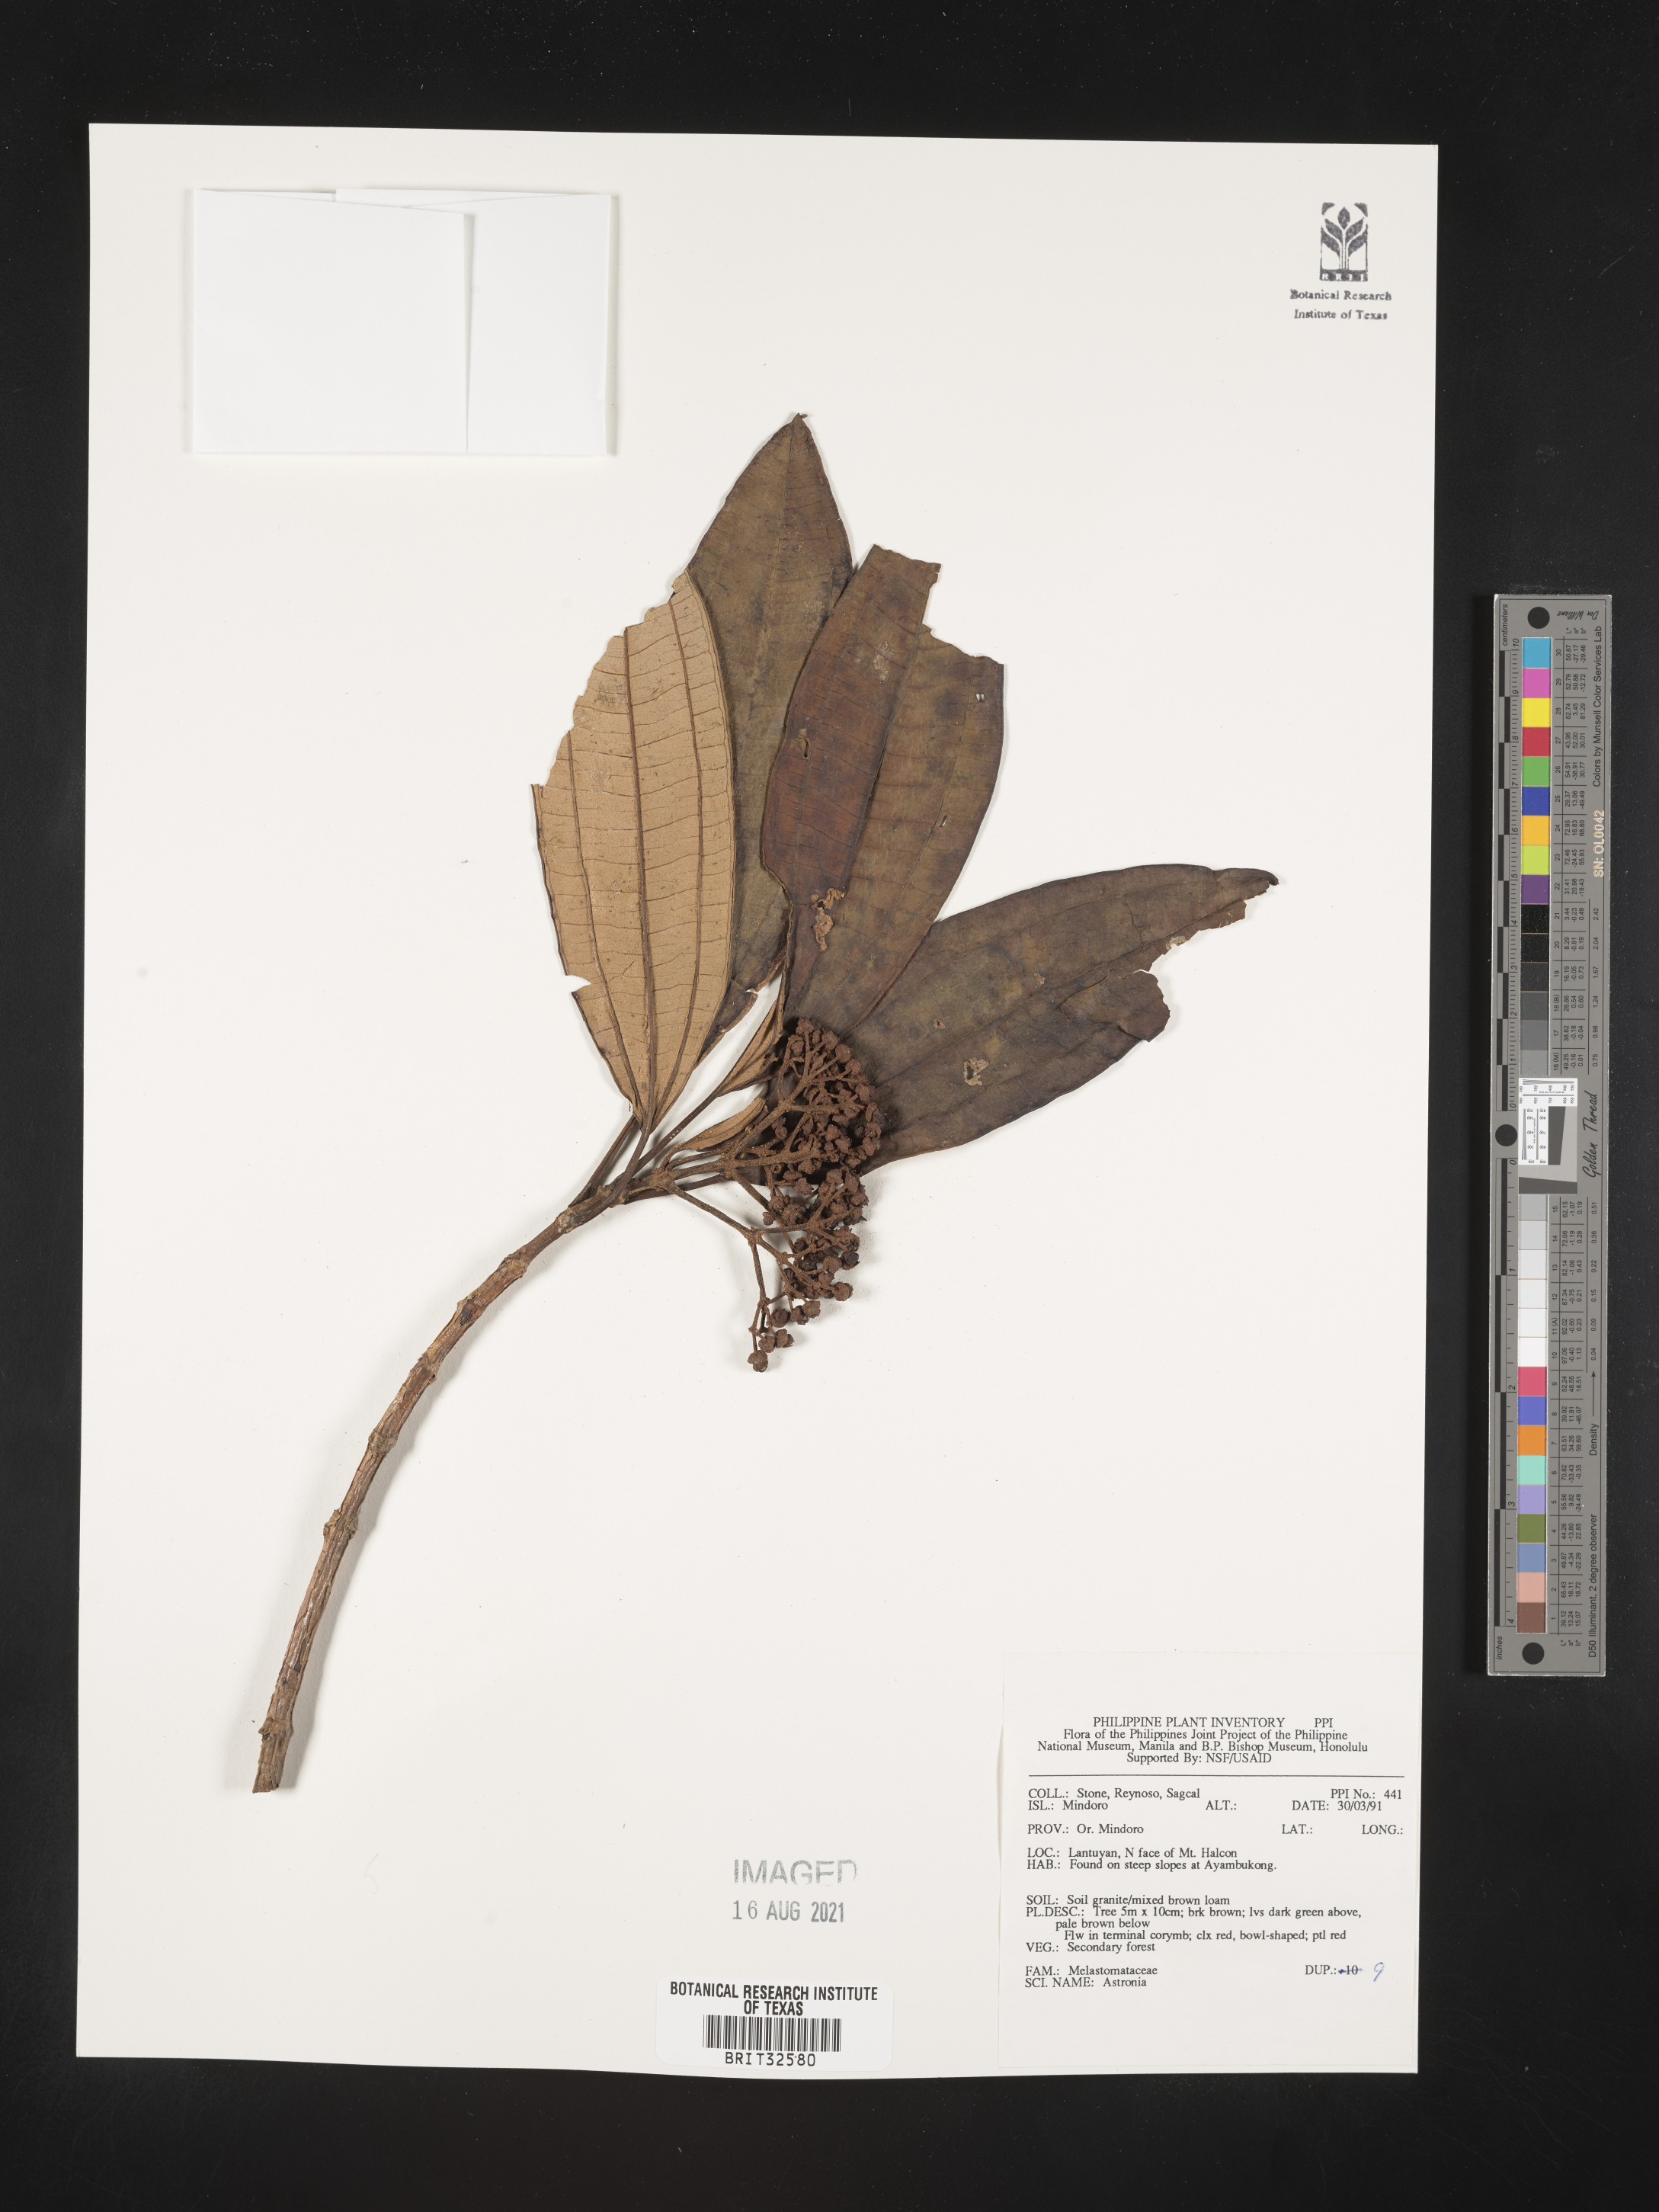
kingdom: Plantae
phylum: Tracheophyta
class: Magnoliopsida
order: Myrtales
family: Melastomataceae
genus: Astronia
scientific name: Astronia
